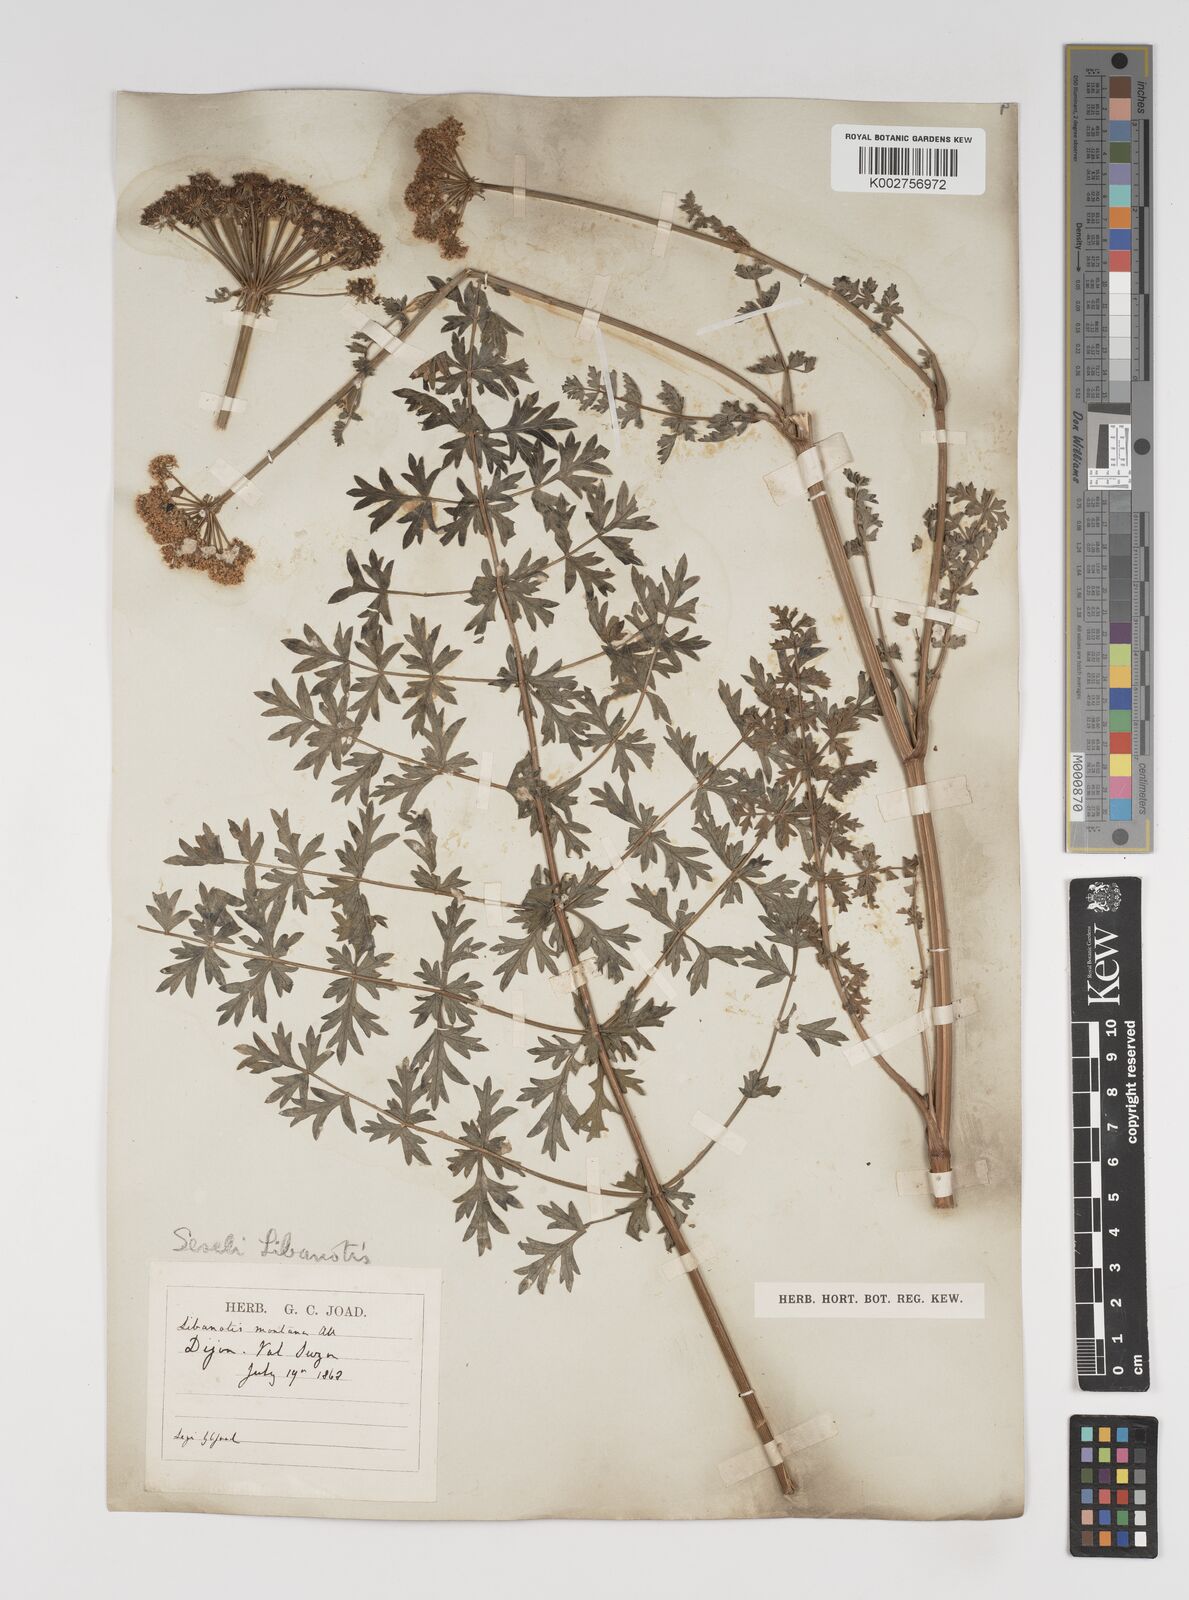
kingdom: Plantae
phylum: Tracheophyta
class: Magnoliopsida
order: Apiales
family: Apiaceae
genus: Seseli
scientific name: Seseli libanotis
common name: Mooncarrot
